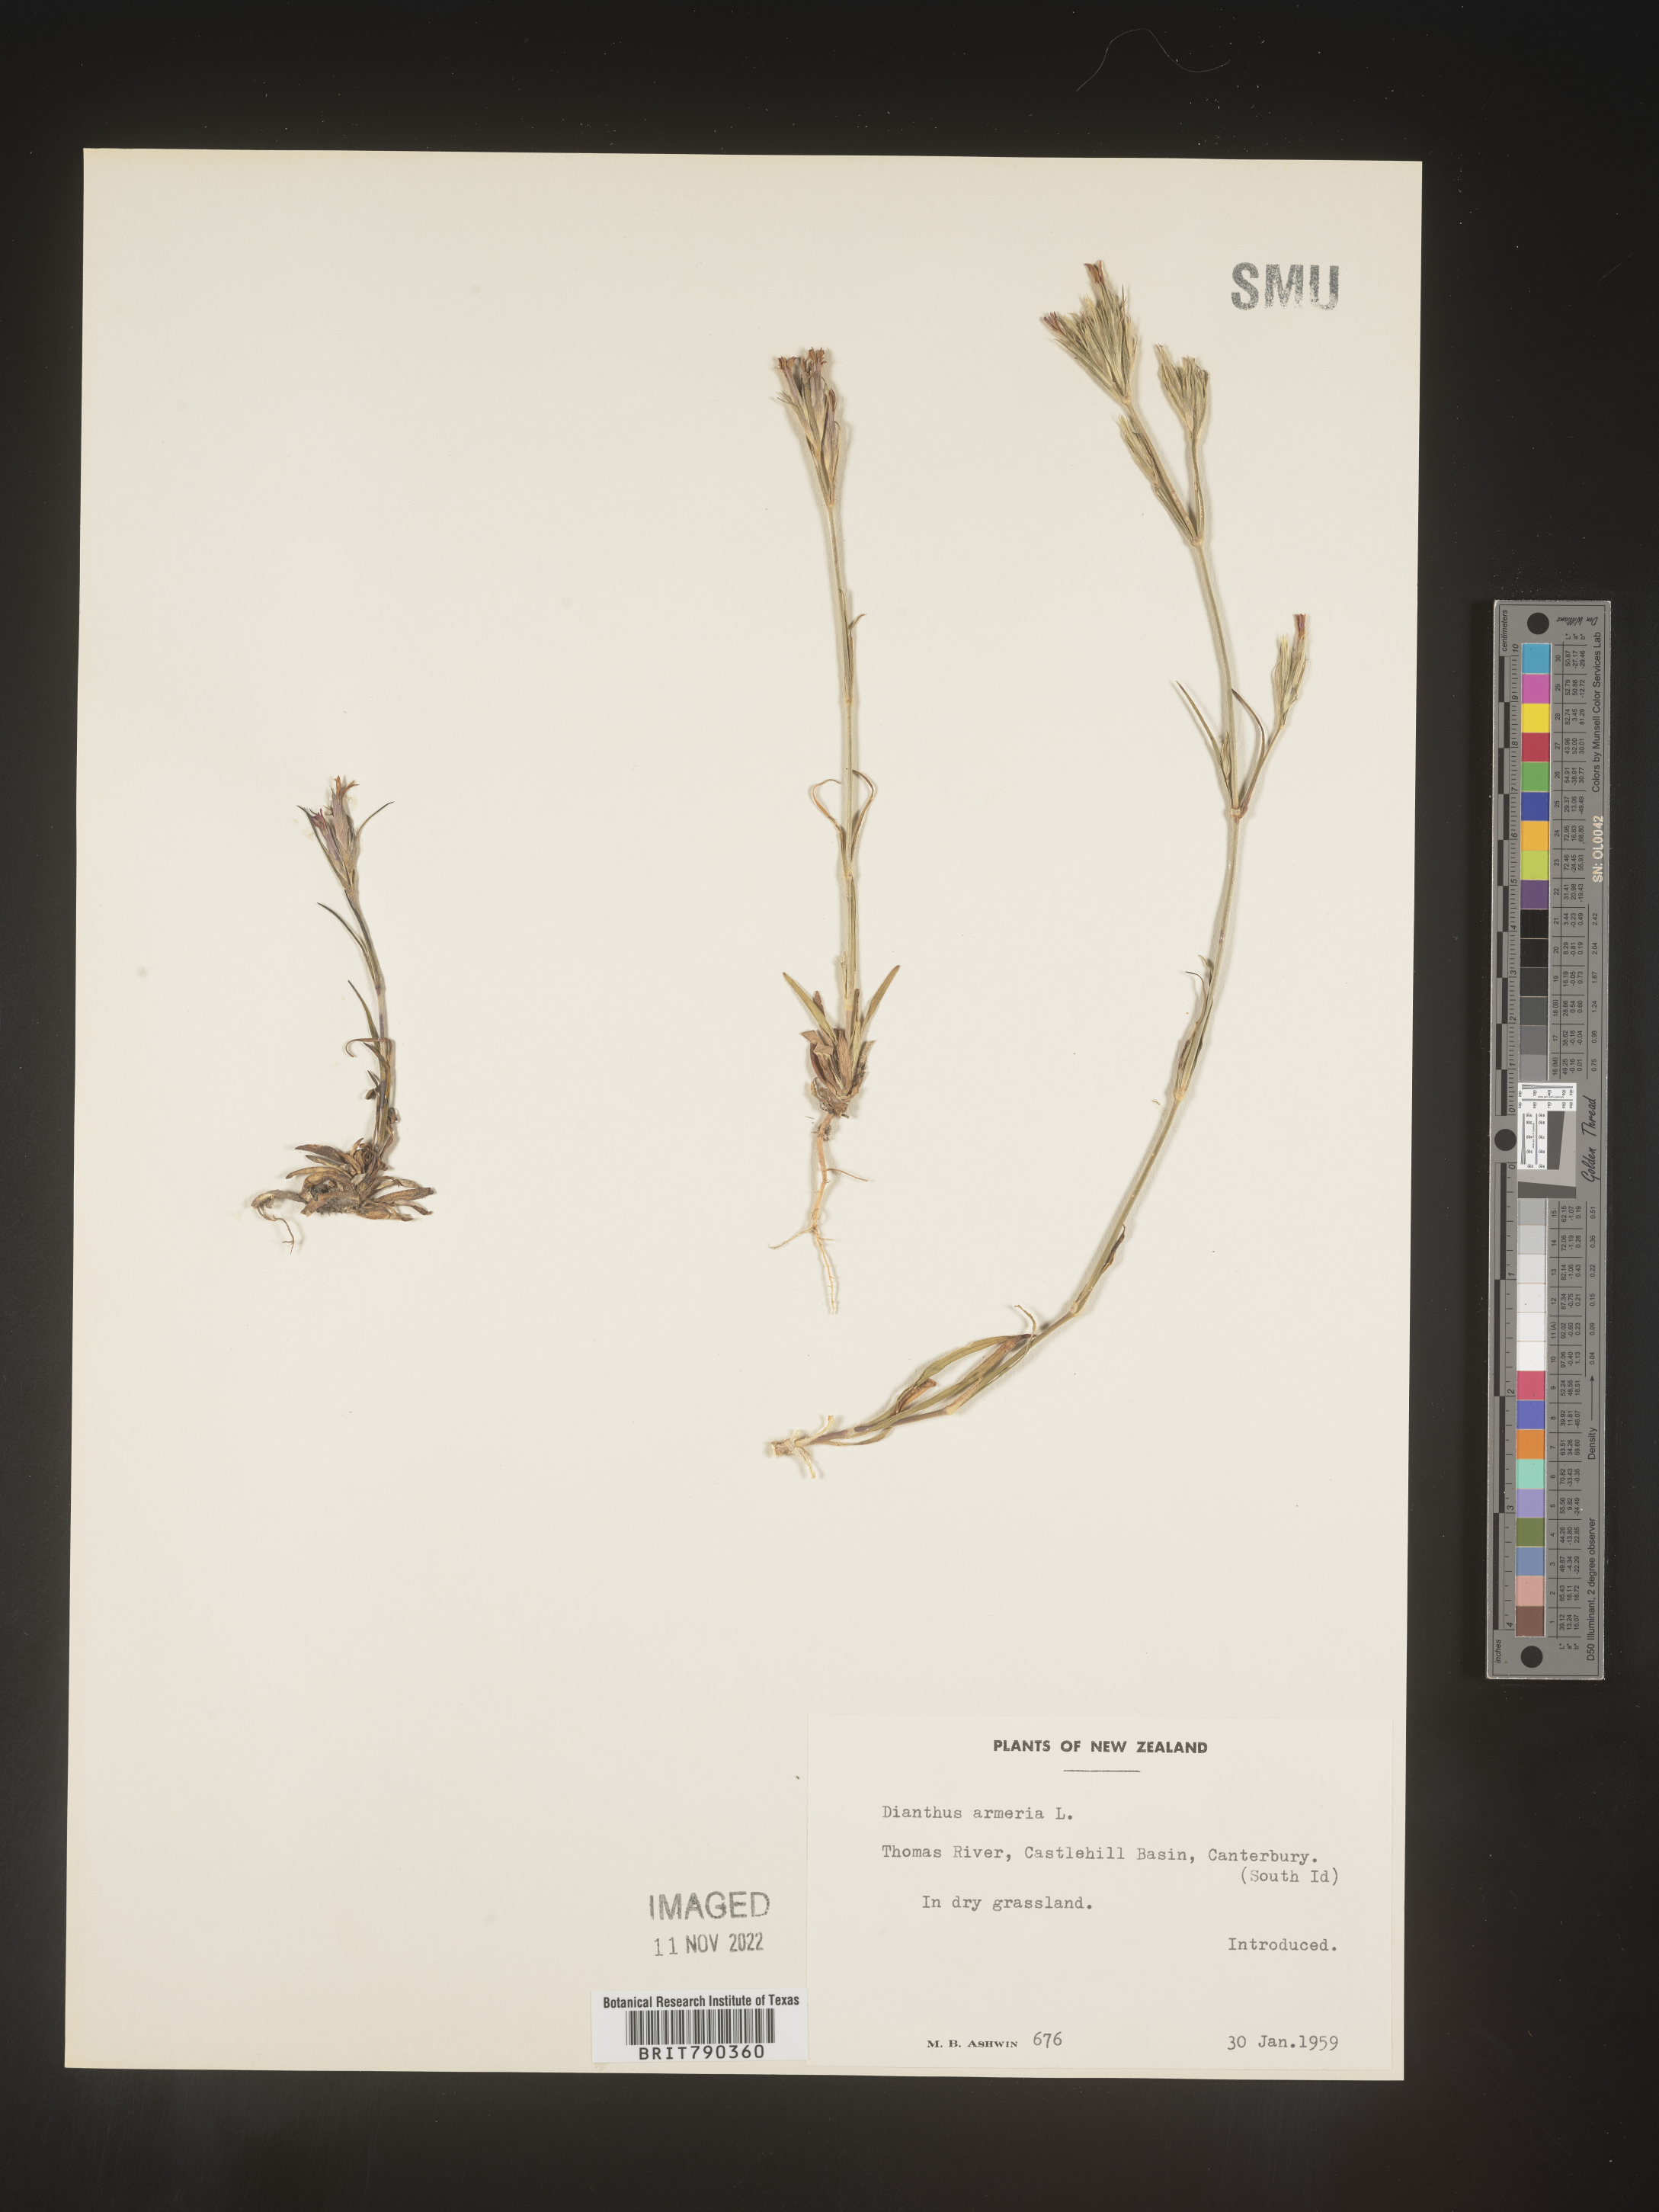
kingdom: Plantae
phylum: Tracheophyta
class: Magnoliopsida
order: Caryophyllales
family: Caryophyllaceae
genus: Dianthus
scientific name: Dianthus
